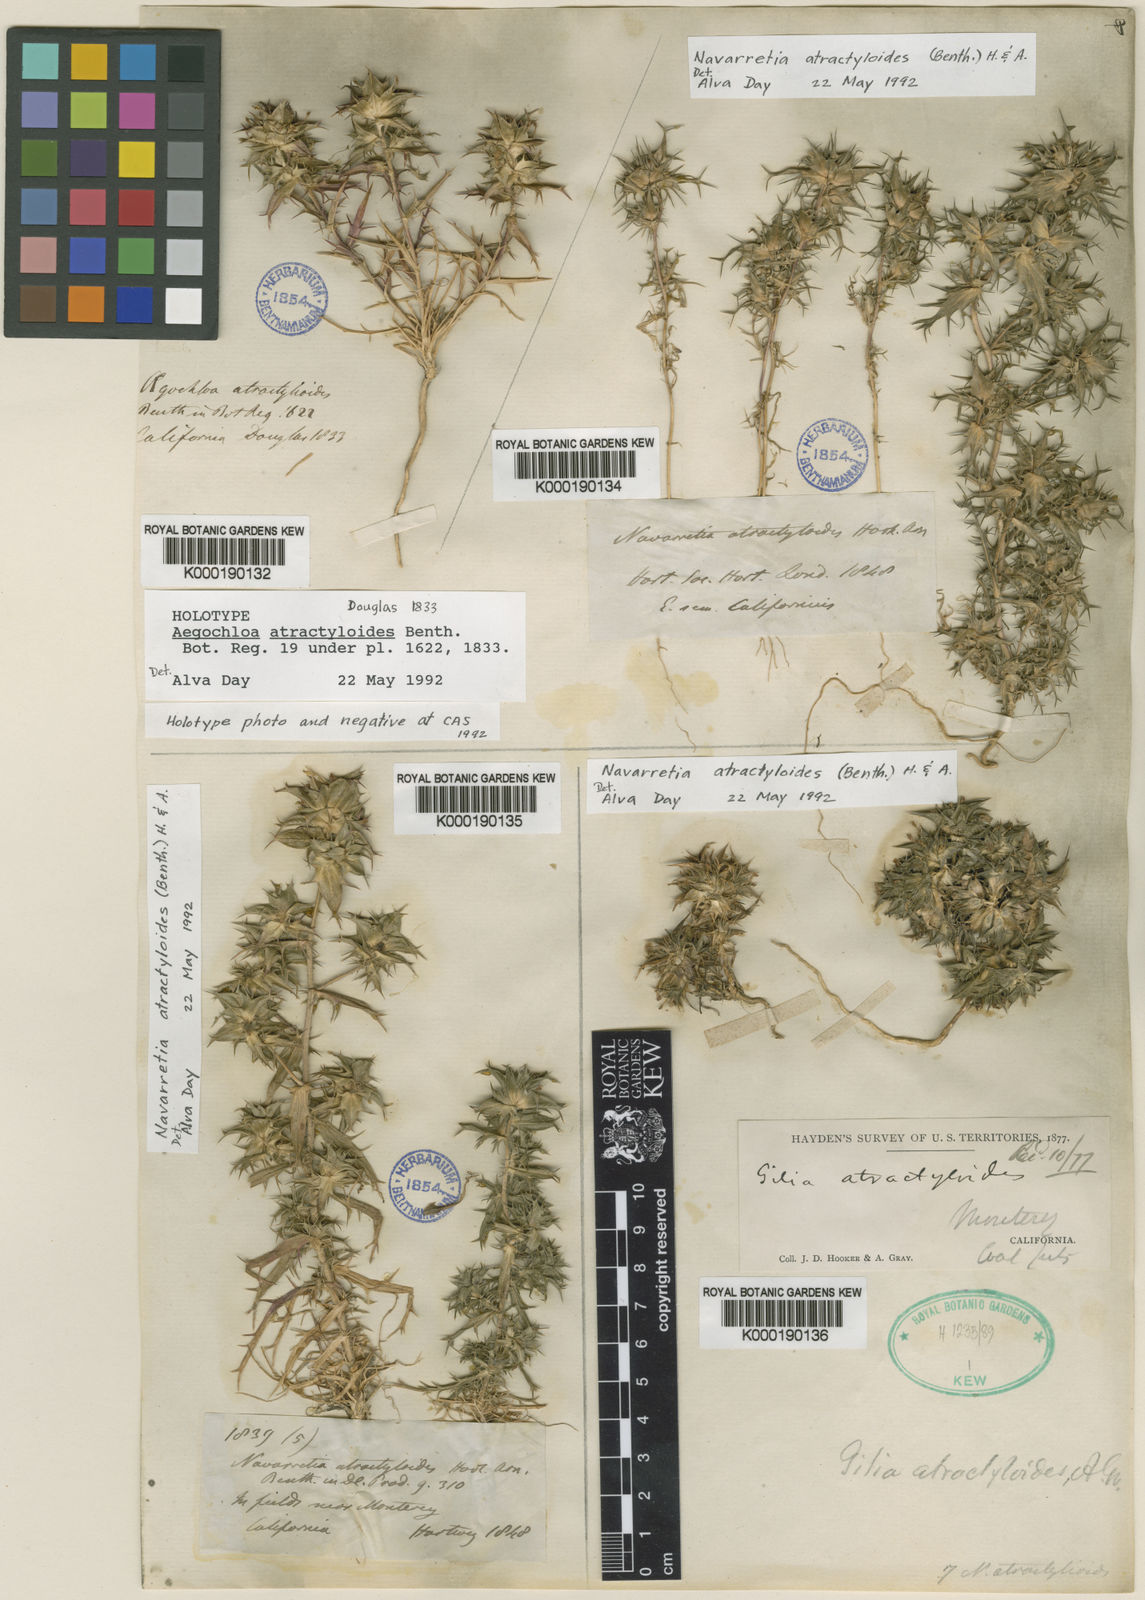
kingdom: Plantae
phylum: Tracheophyta
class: Magnoliopsida
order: Ericales
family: Polemoniaceae
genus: Navarretia
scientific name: Navarretia atractyloides
